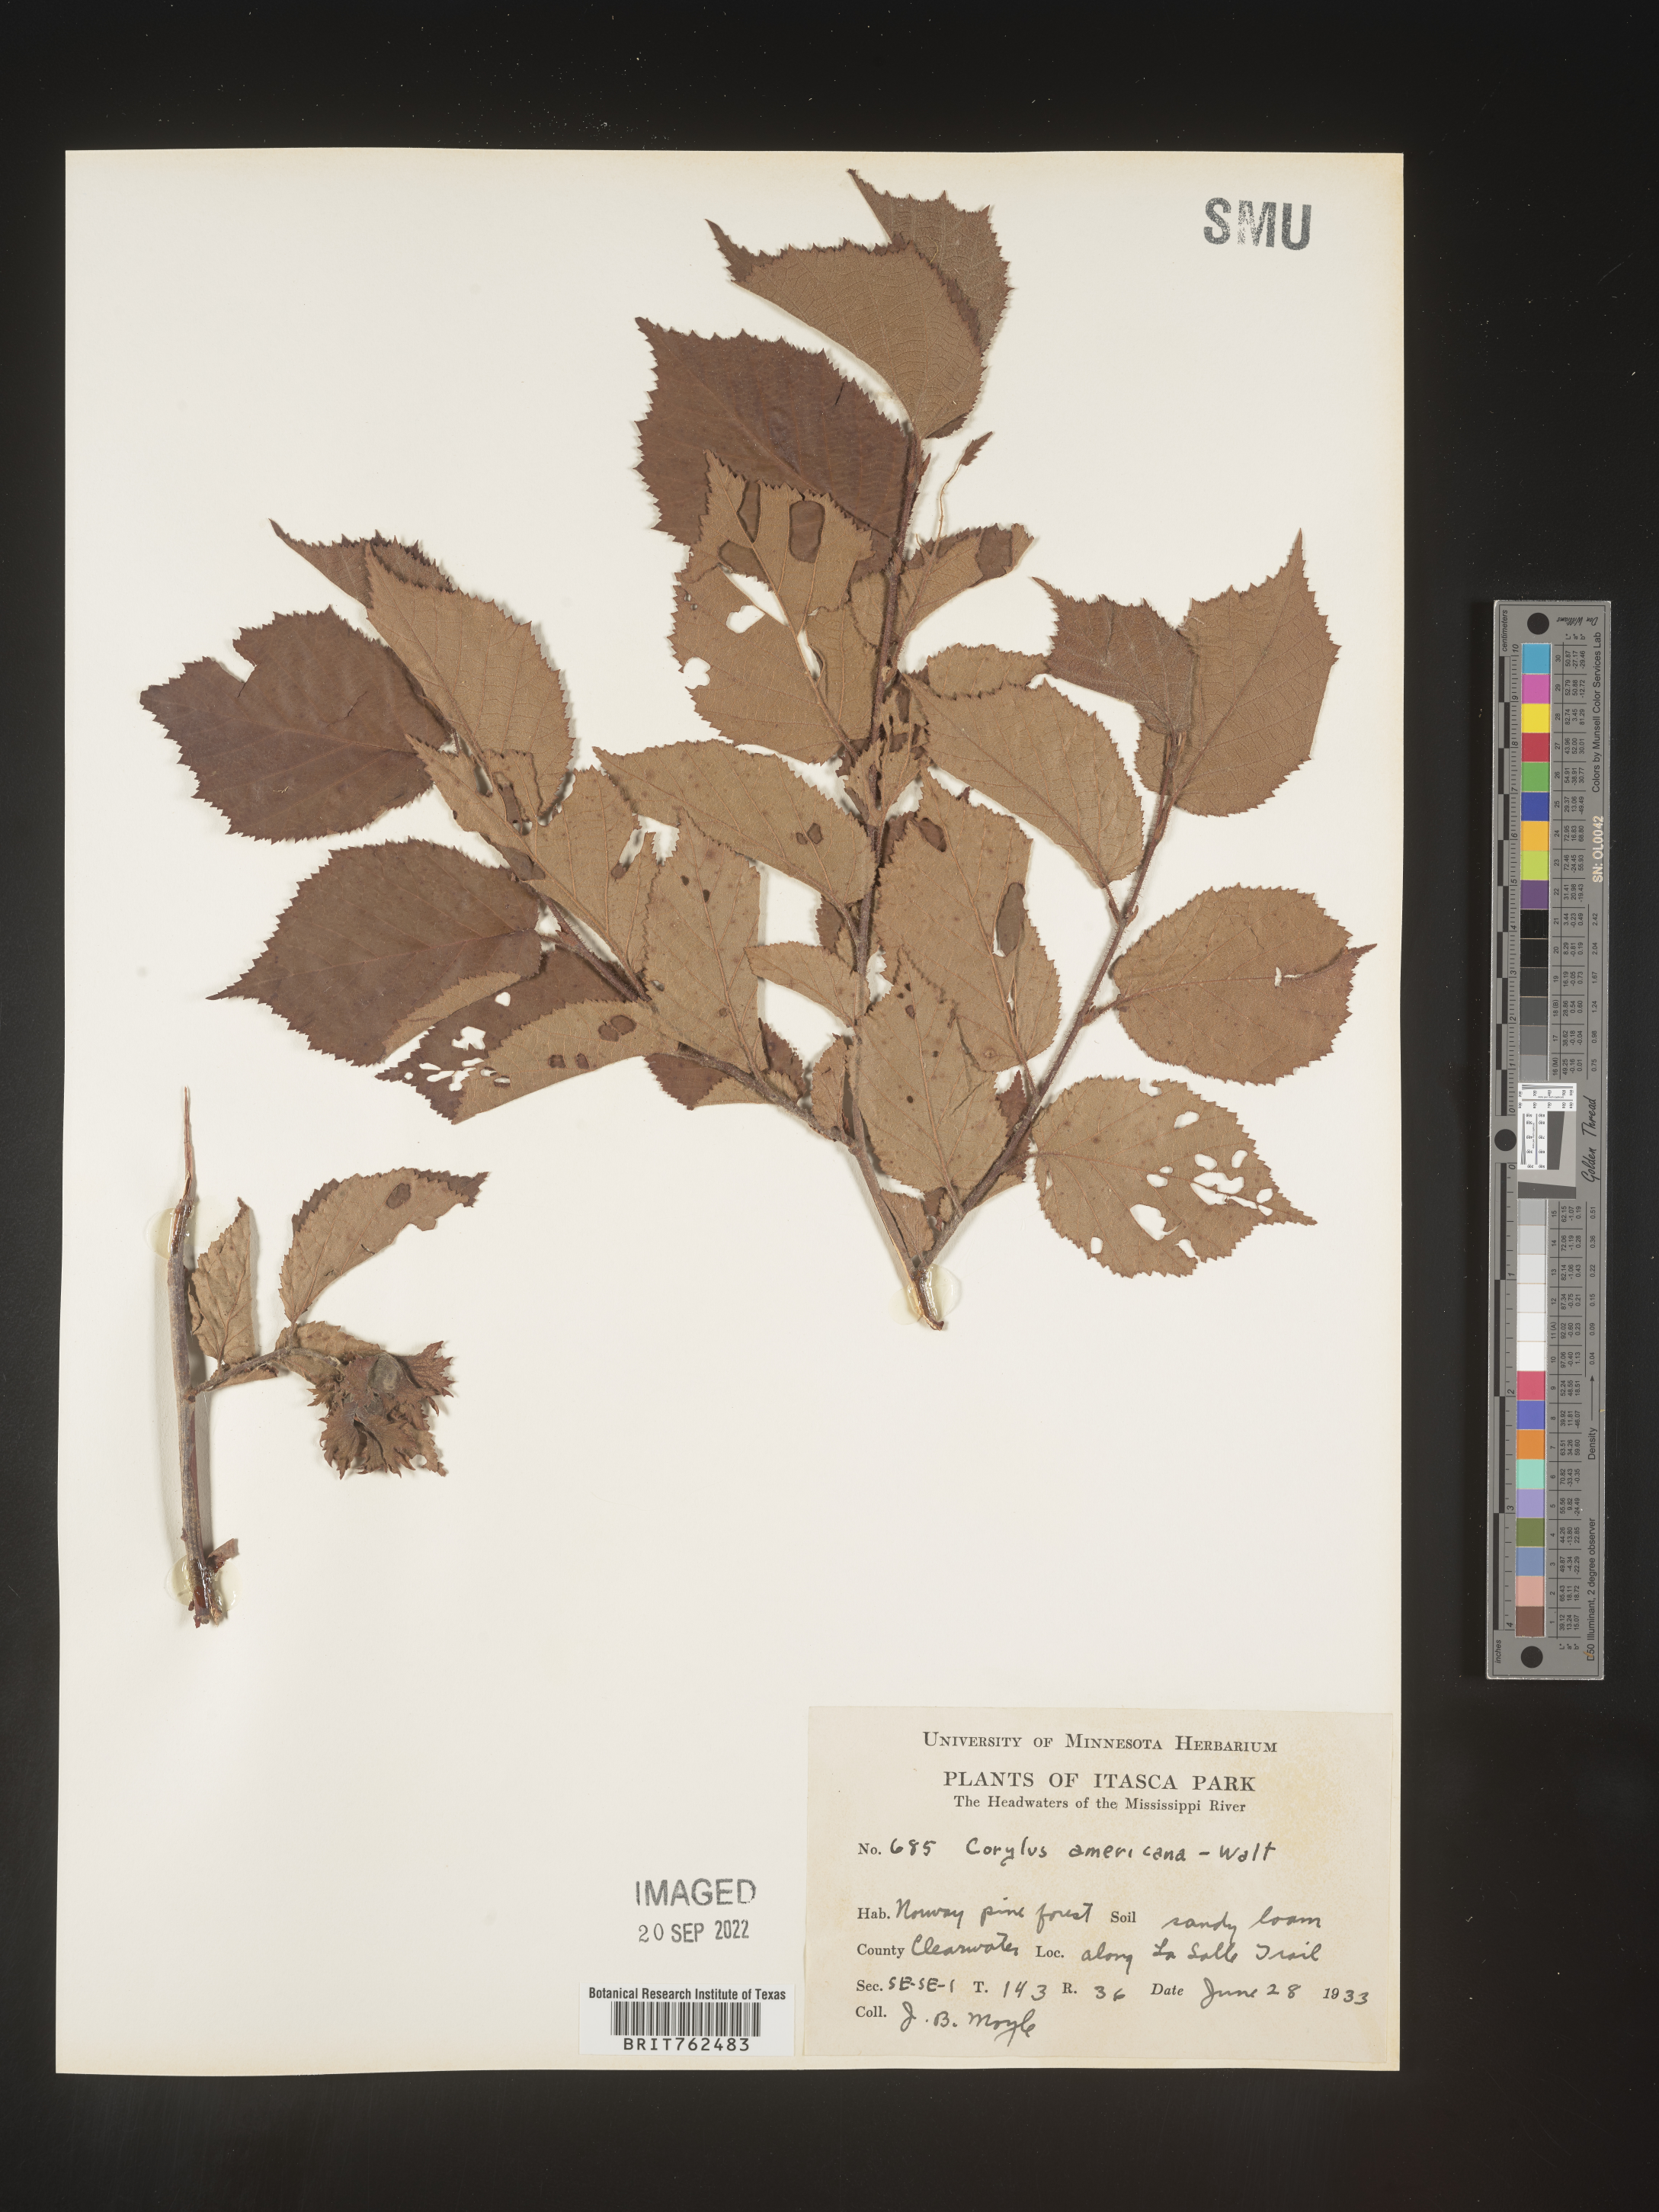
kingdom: Plantae
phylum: Tracheophyta
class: Magnoliopsida
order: Fagales
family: Betulaceae
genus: Corylus
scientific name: Corylus americana
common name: American hazel
